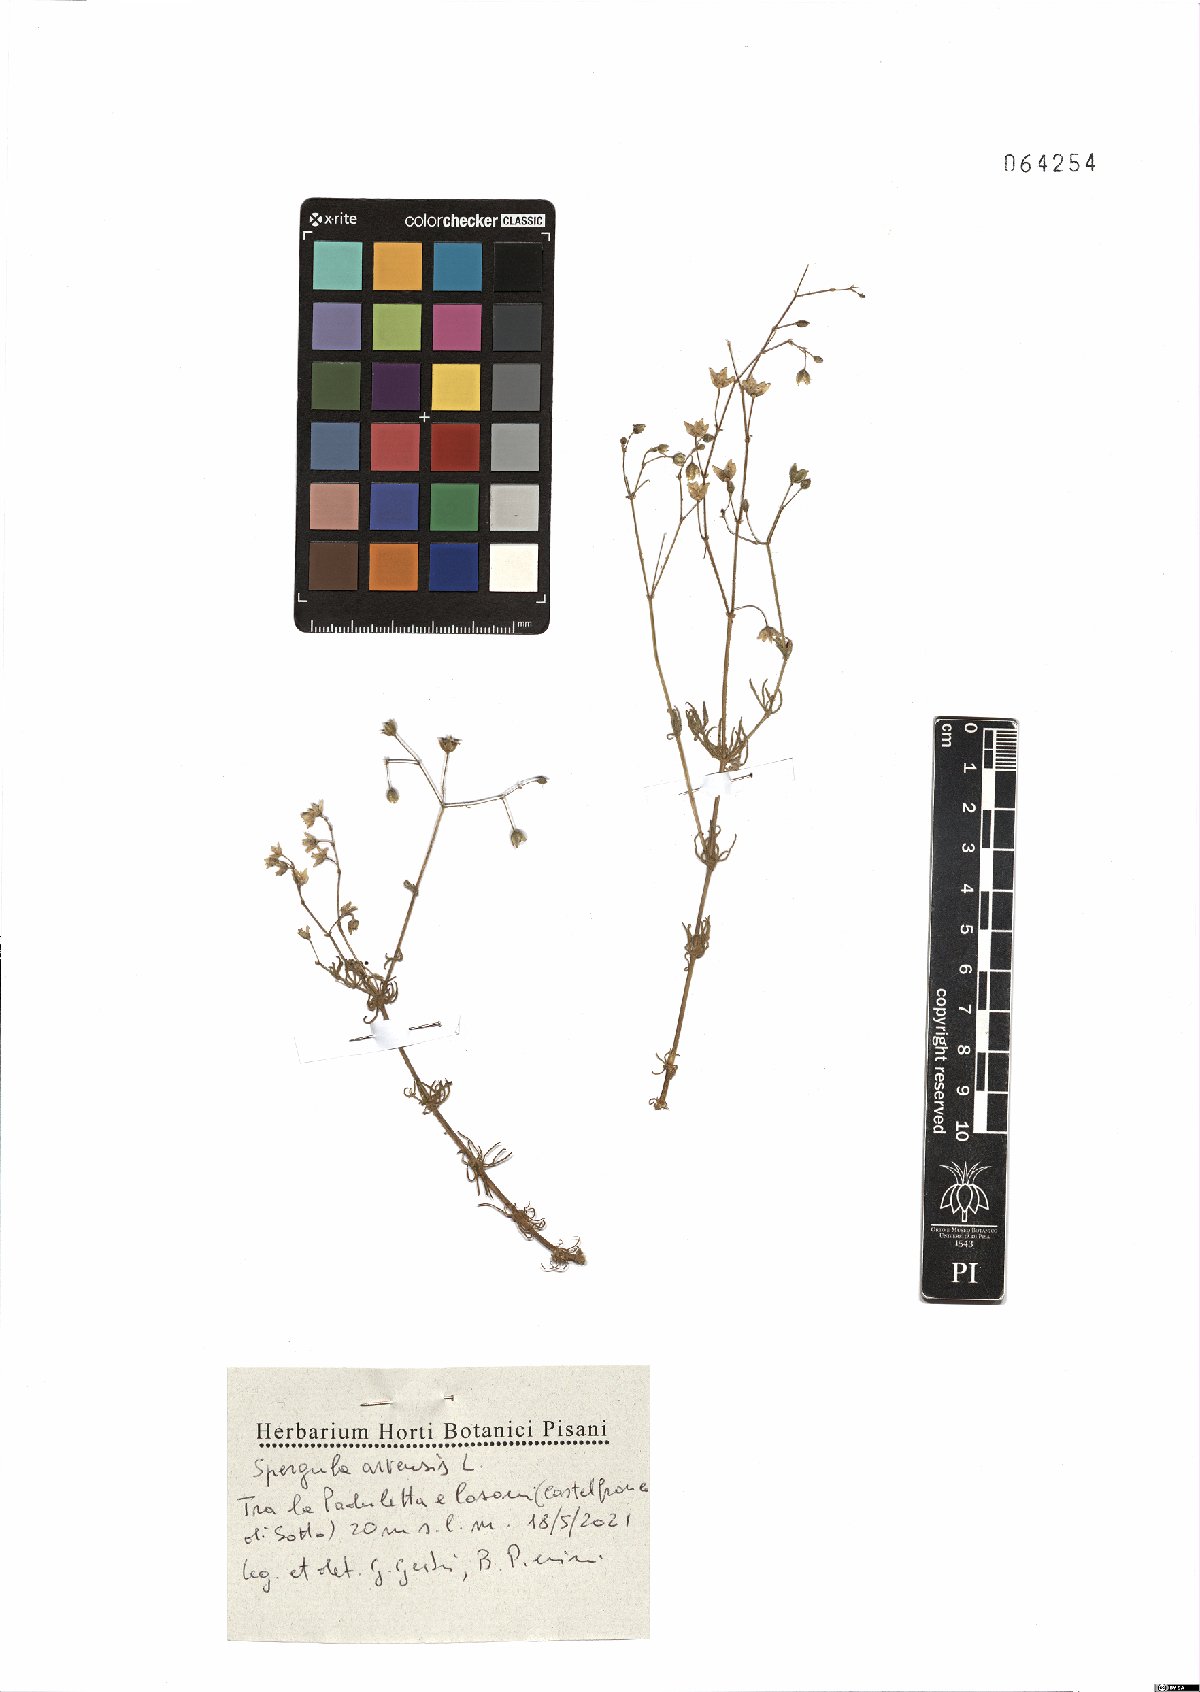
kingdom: Plantae
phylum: Tracheophyta
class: Magnoliopsida
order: Caryophyllales
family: Caryophyllaceae
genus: Spergula
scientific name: Spergula arvensis
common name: Corn spurrey
